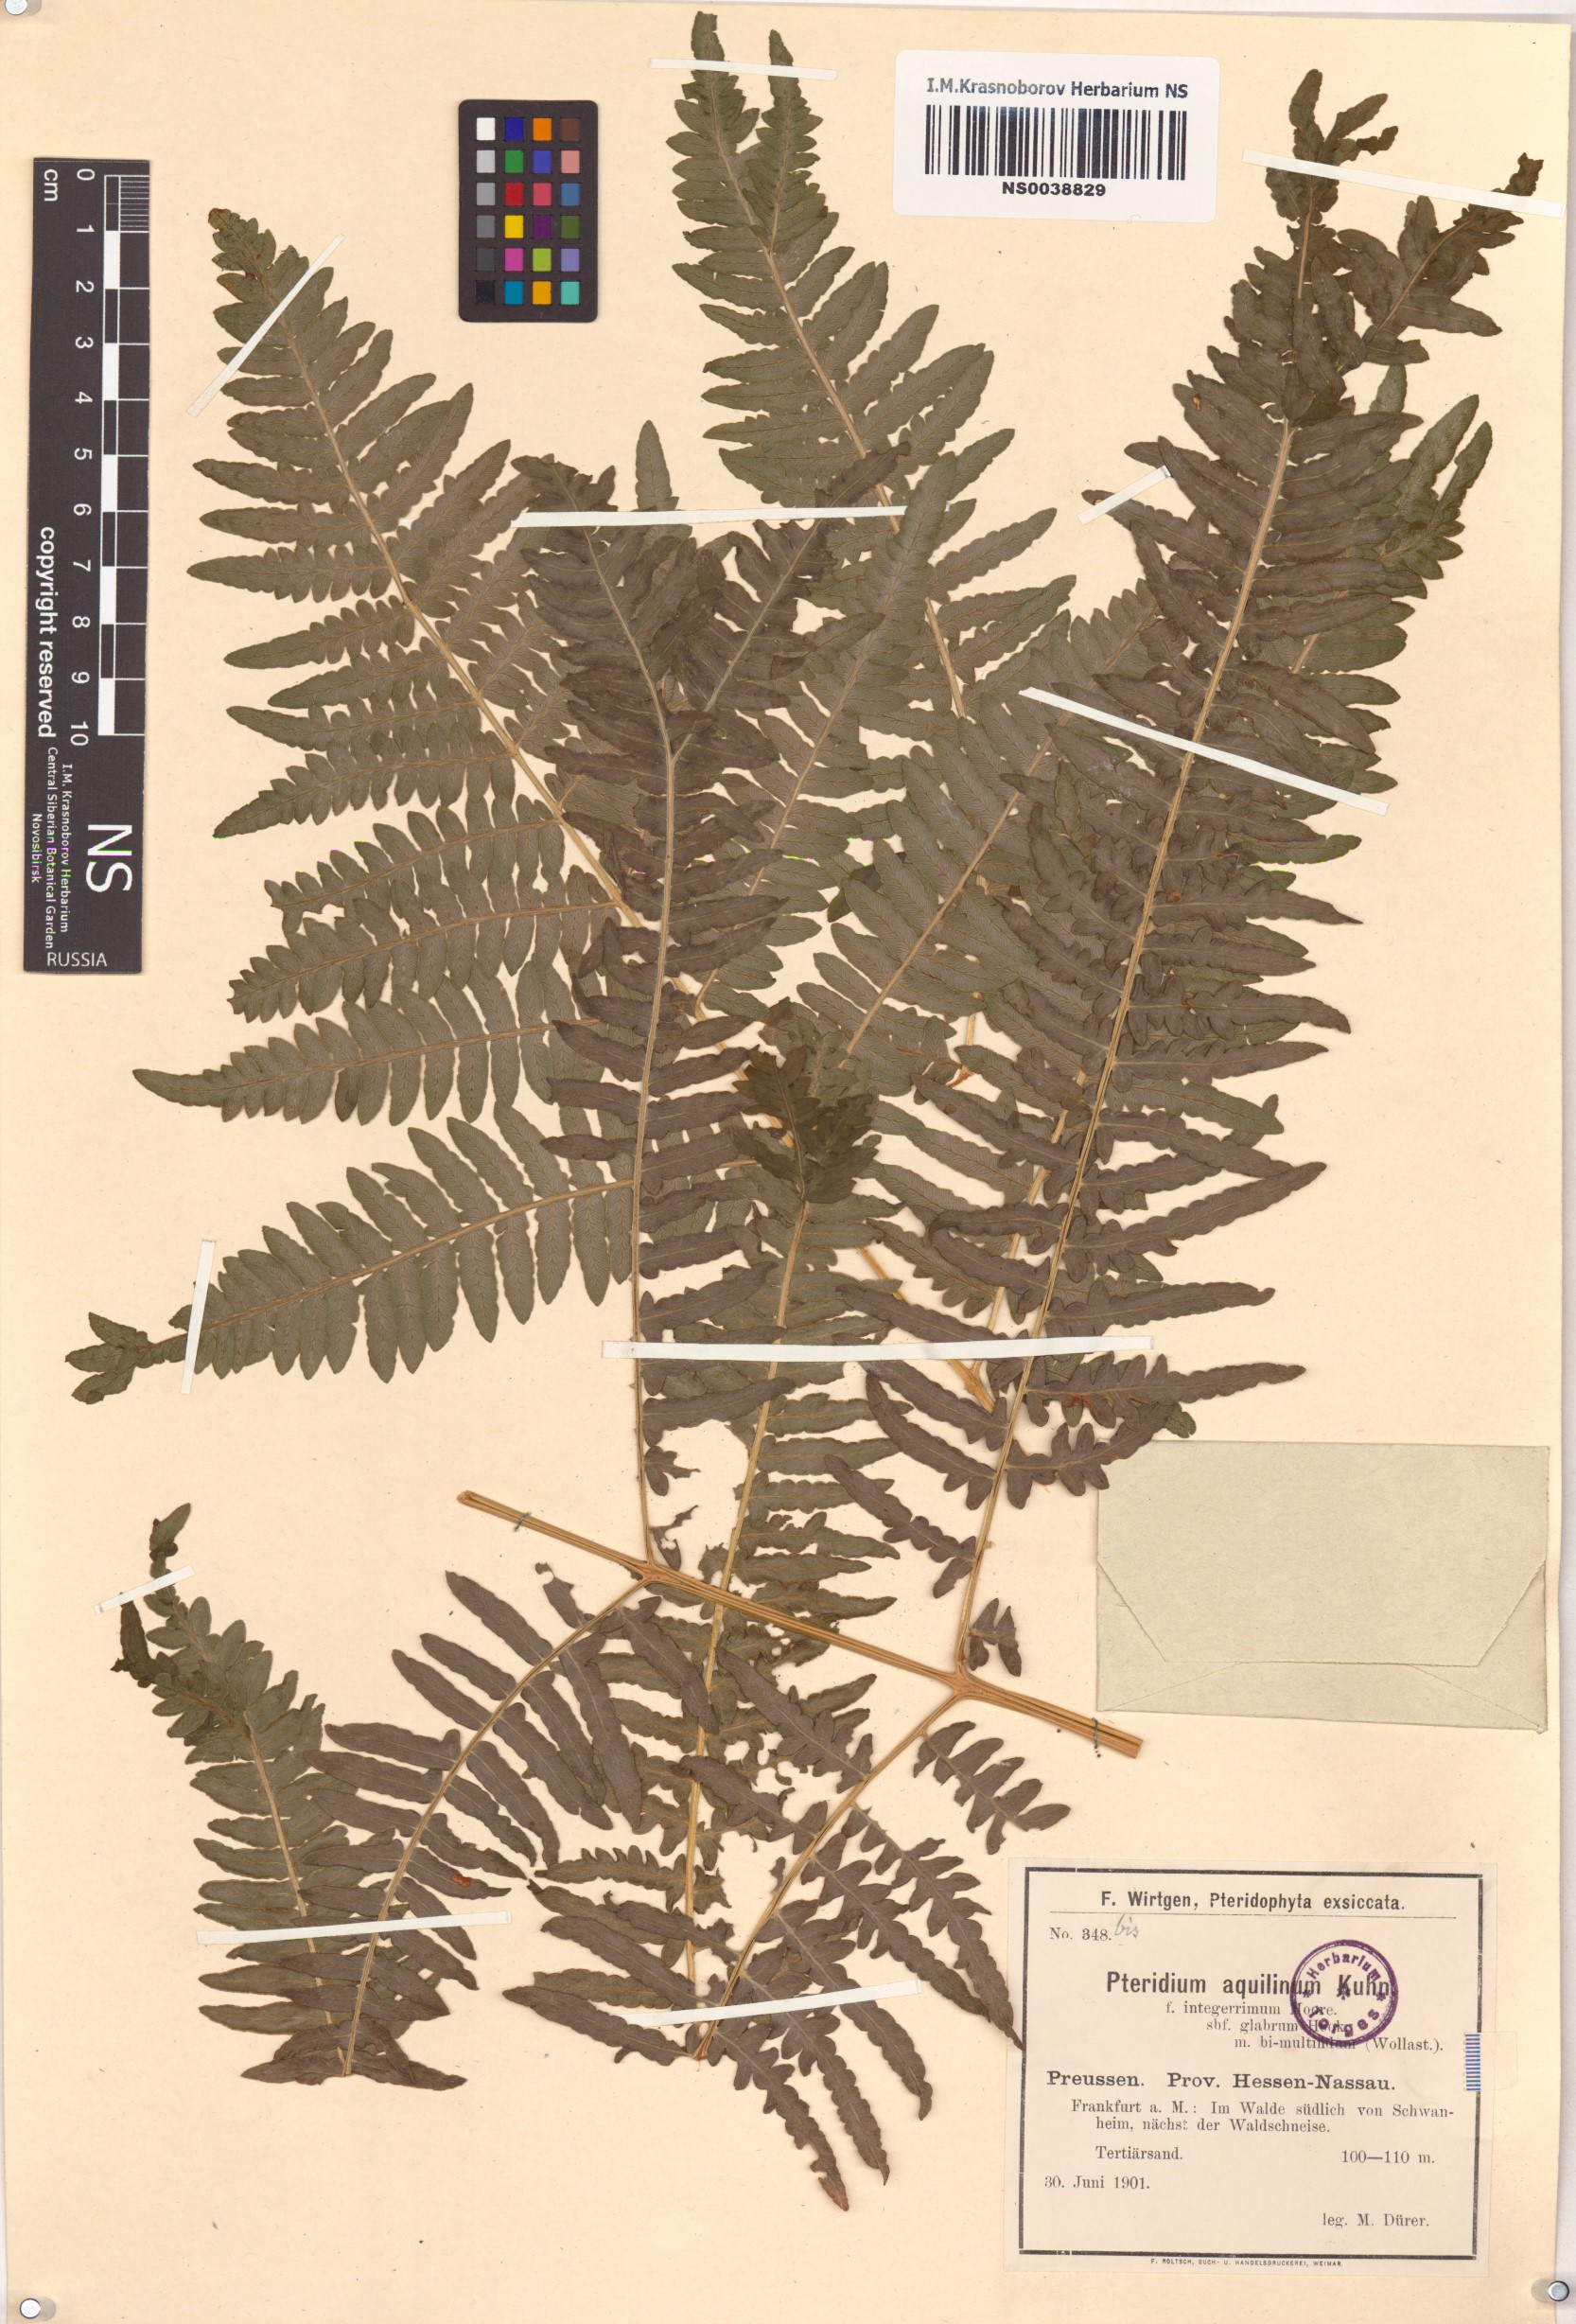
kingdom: Plantae
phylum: Tracheophyta
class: Polypodiopsida
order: Polypodiales
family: Dennstaedtiaceae
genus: Pteridium
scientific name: Pteridium aquilinum
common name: Bracken
